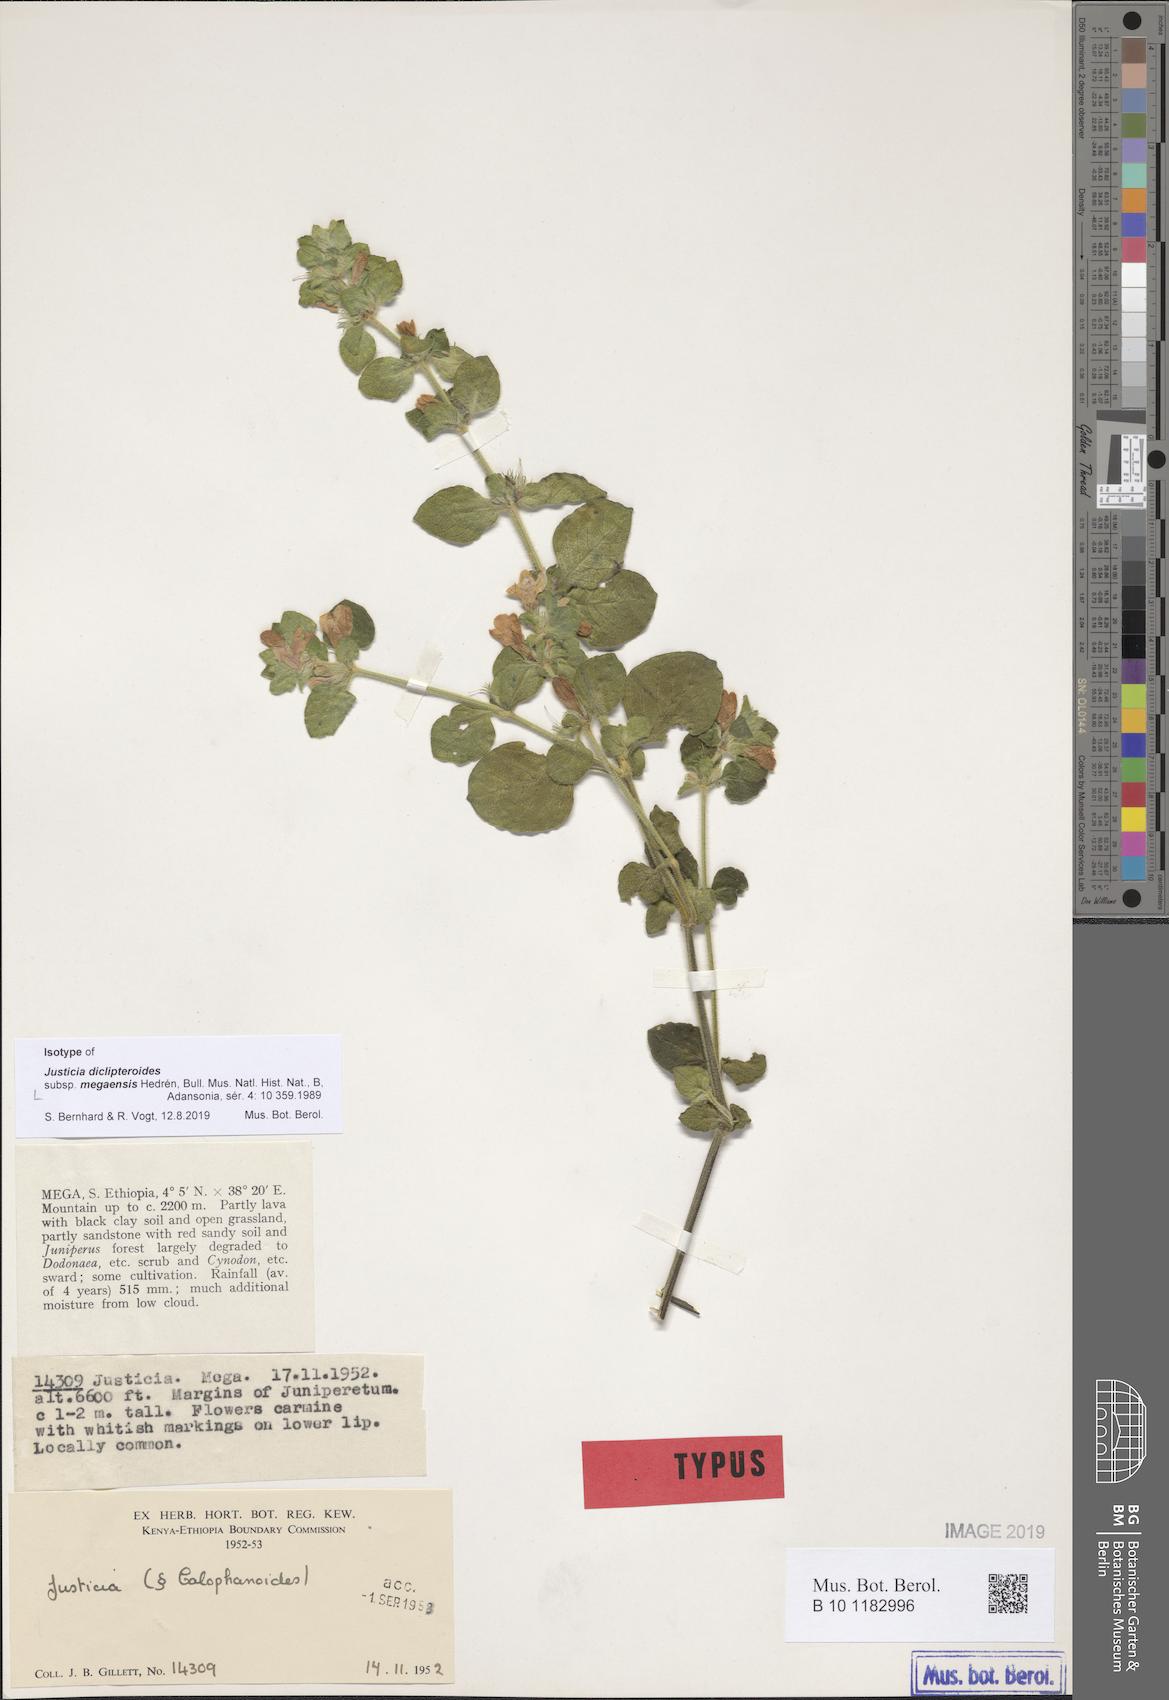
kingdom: Plantae
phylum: Tracheophyta
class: Magnoliopsida
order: Lamiales
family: Acanthaceae
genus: Justicia
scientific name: Justicia diclipteroides
